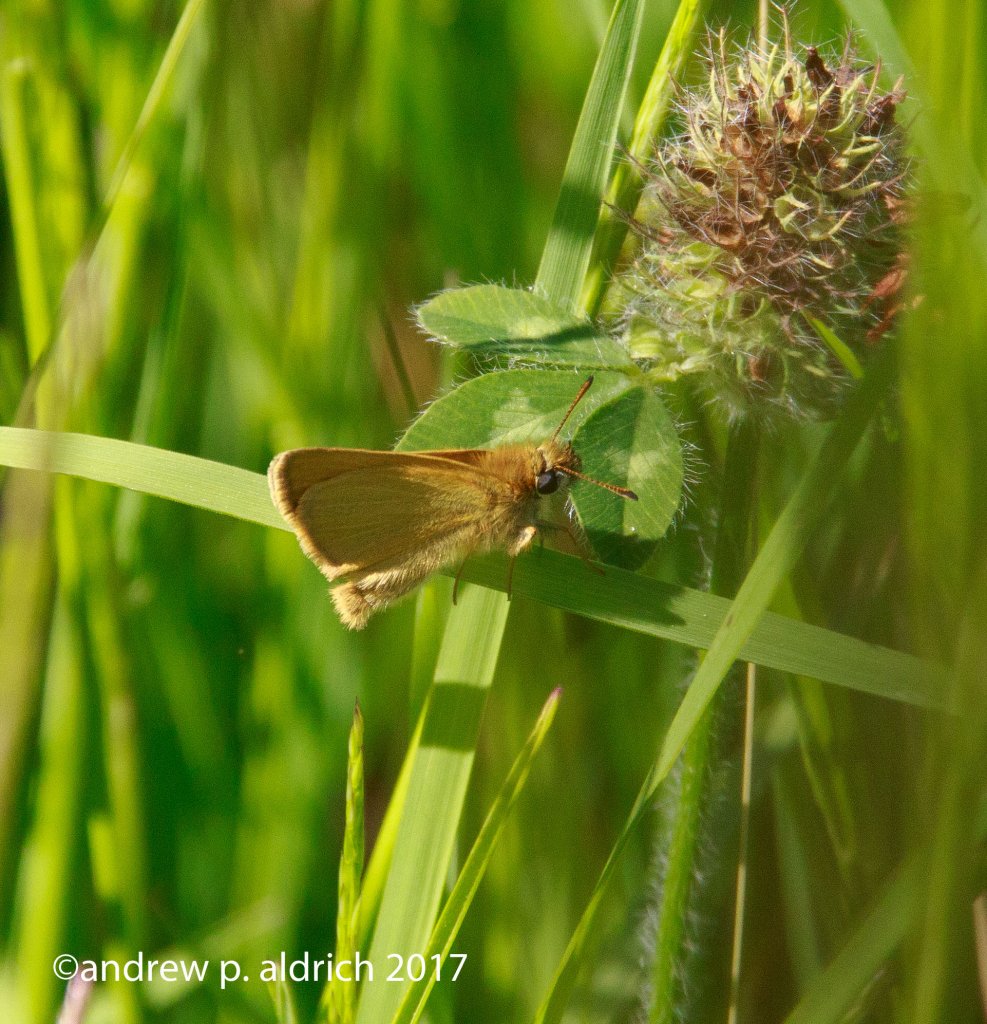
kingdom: Animalia
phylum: Arthropoda
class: Insecta
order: Lepidoptera
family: Hesperiidae
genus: Thymelicus
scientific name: Thymelicus lineola
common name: European Skipper
